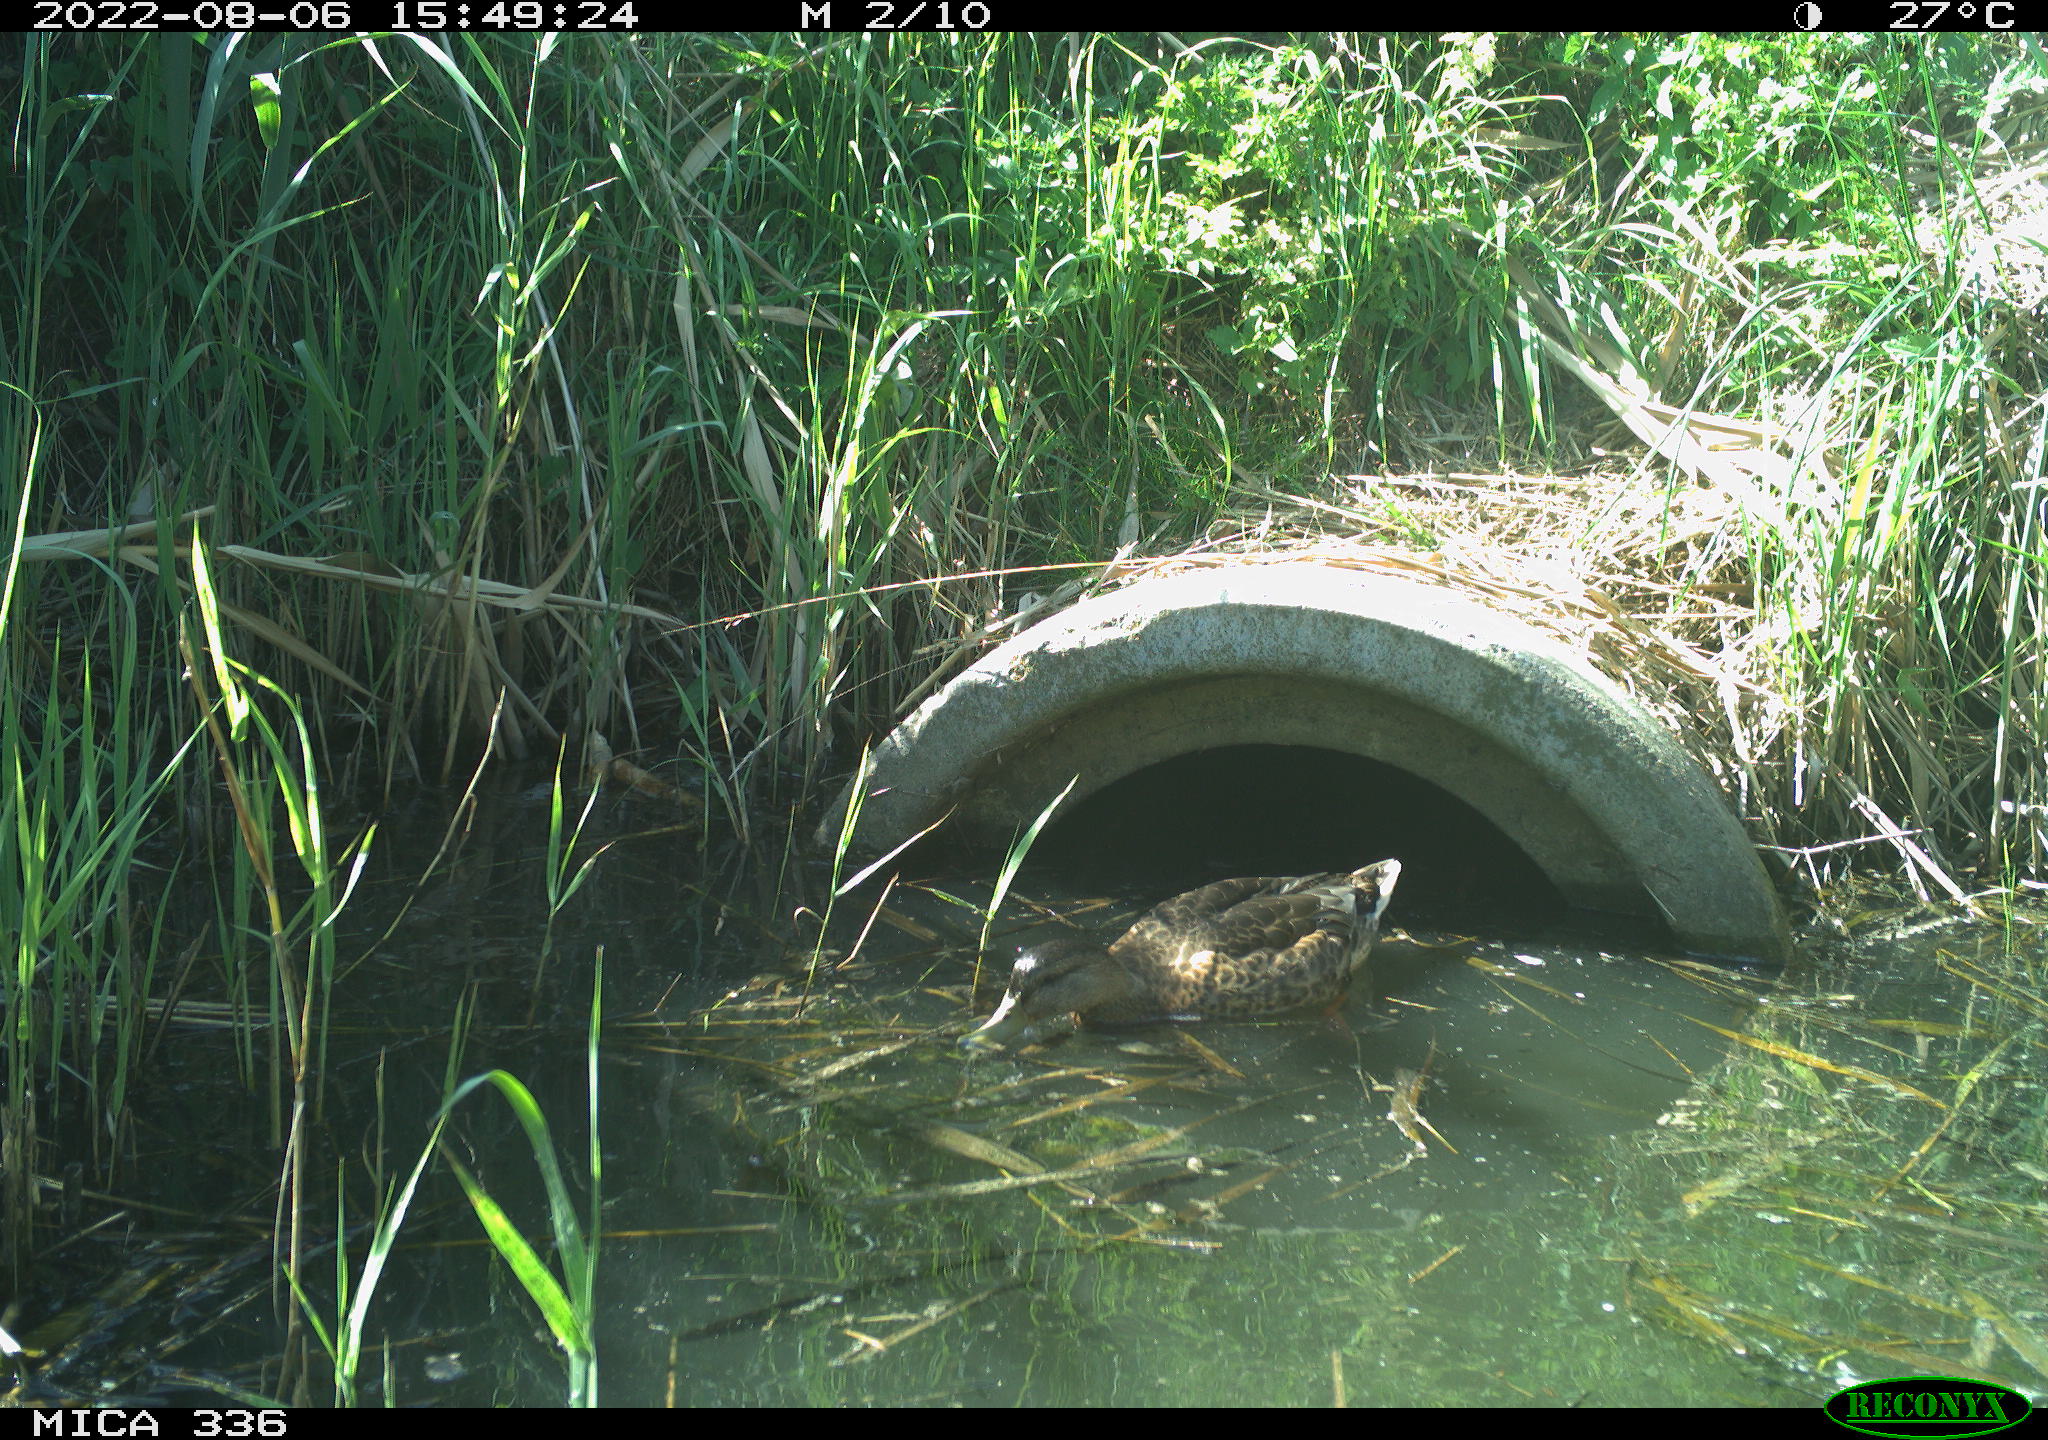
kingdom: Animalia
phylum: Chordata
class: Aves
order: Anseriformes
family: Anatidae
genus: Anas
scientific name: Anas platyrhynchos
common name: Mallard
